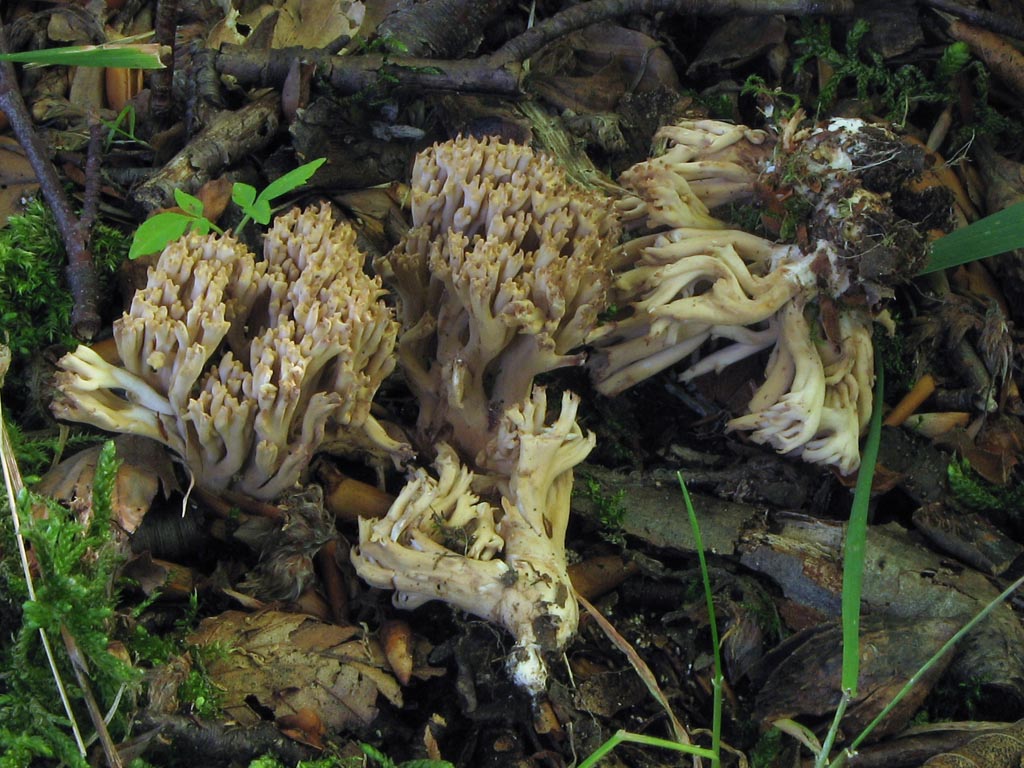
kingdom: Fungi
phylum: Basidiomycota
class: Agaricomycetes
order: Gomphales
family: Gomphaceae
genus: Ramaria
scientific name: Ramaria
